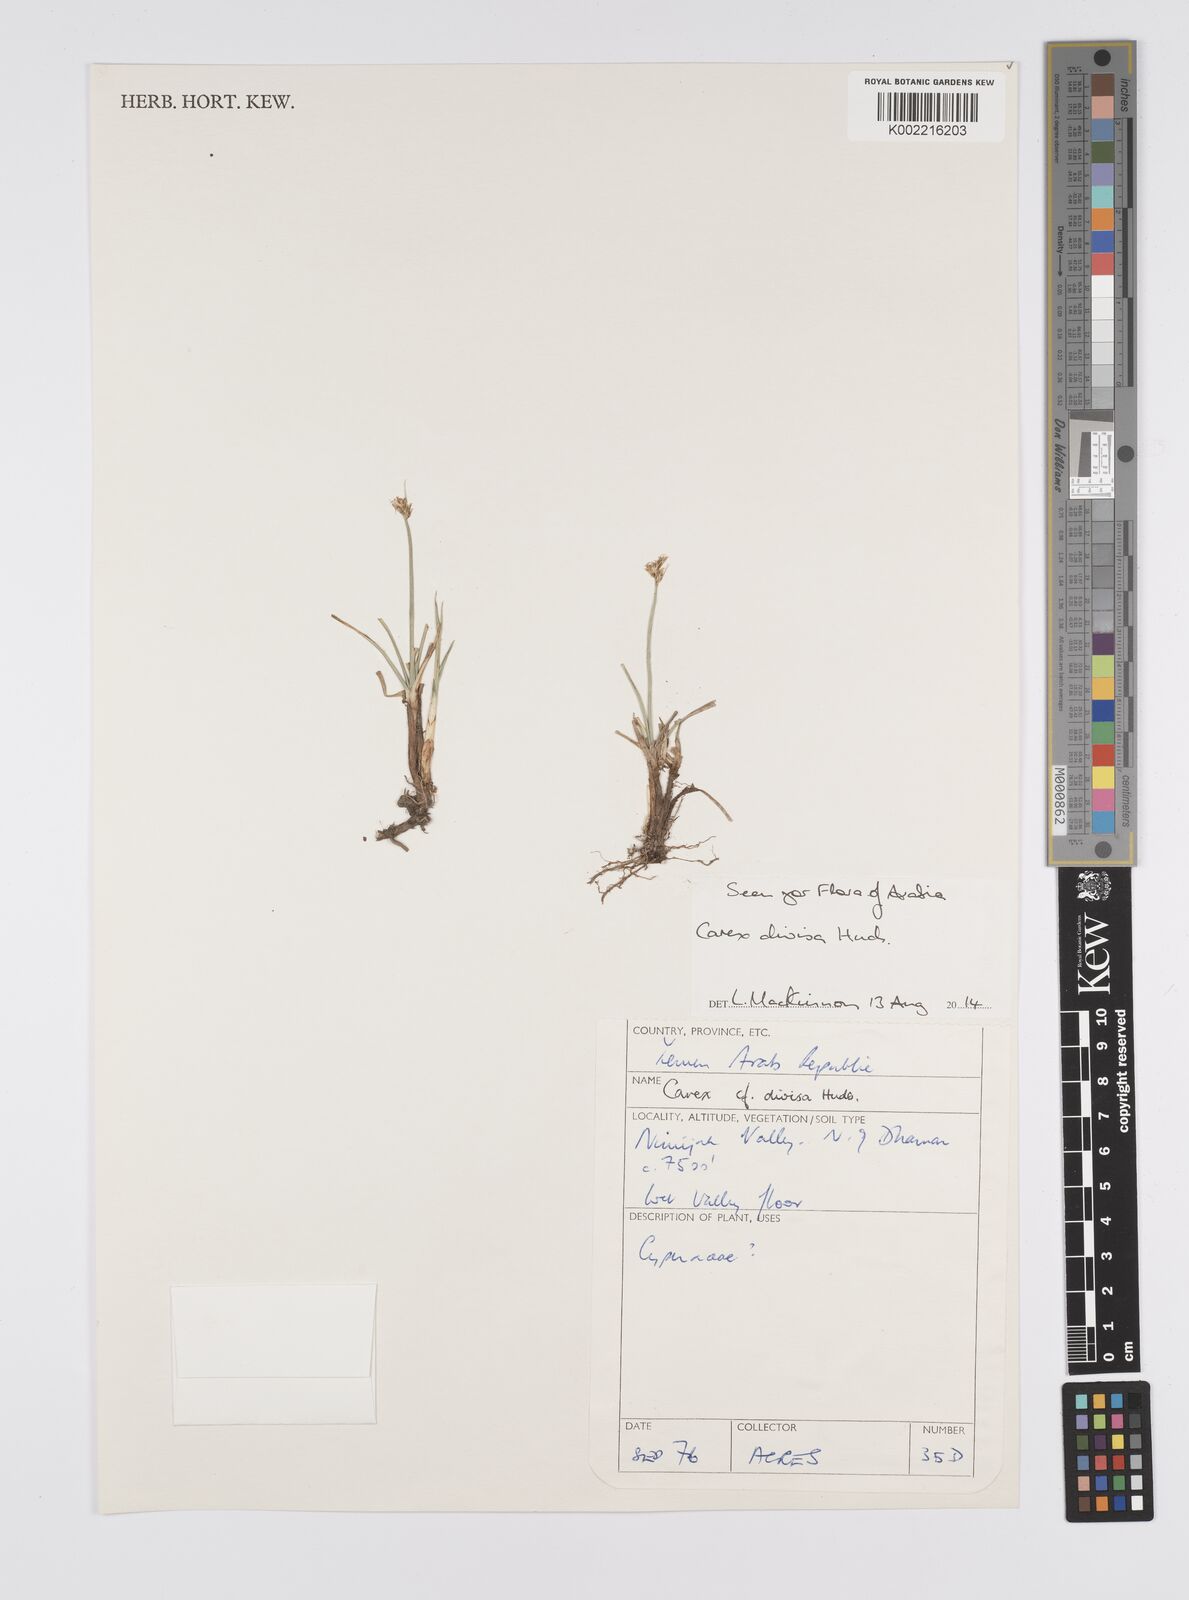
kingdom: Plantae
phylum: Tracheophyta
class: Liliopsida
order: Poales
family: Cyperaceae
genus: Carex
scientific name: Carex divisa
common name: Divided sedge
